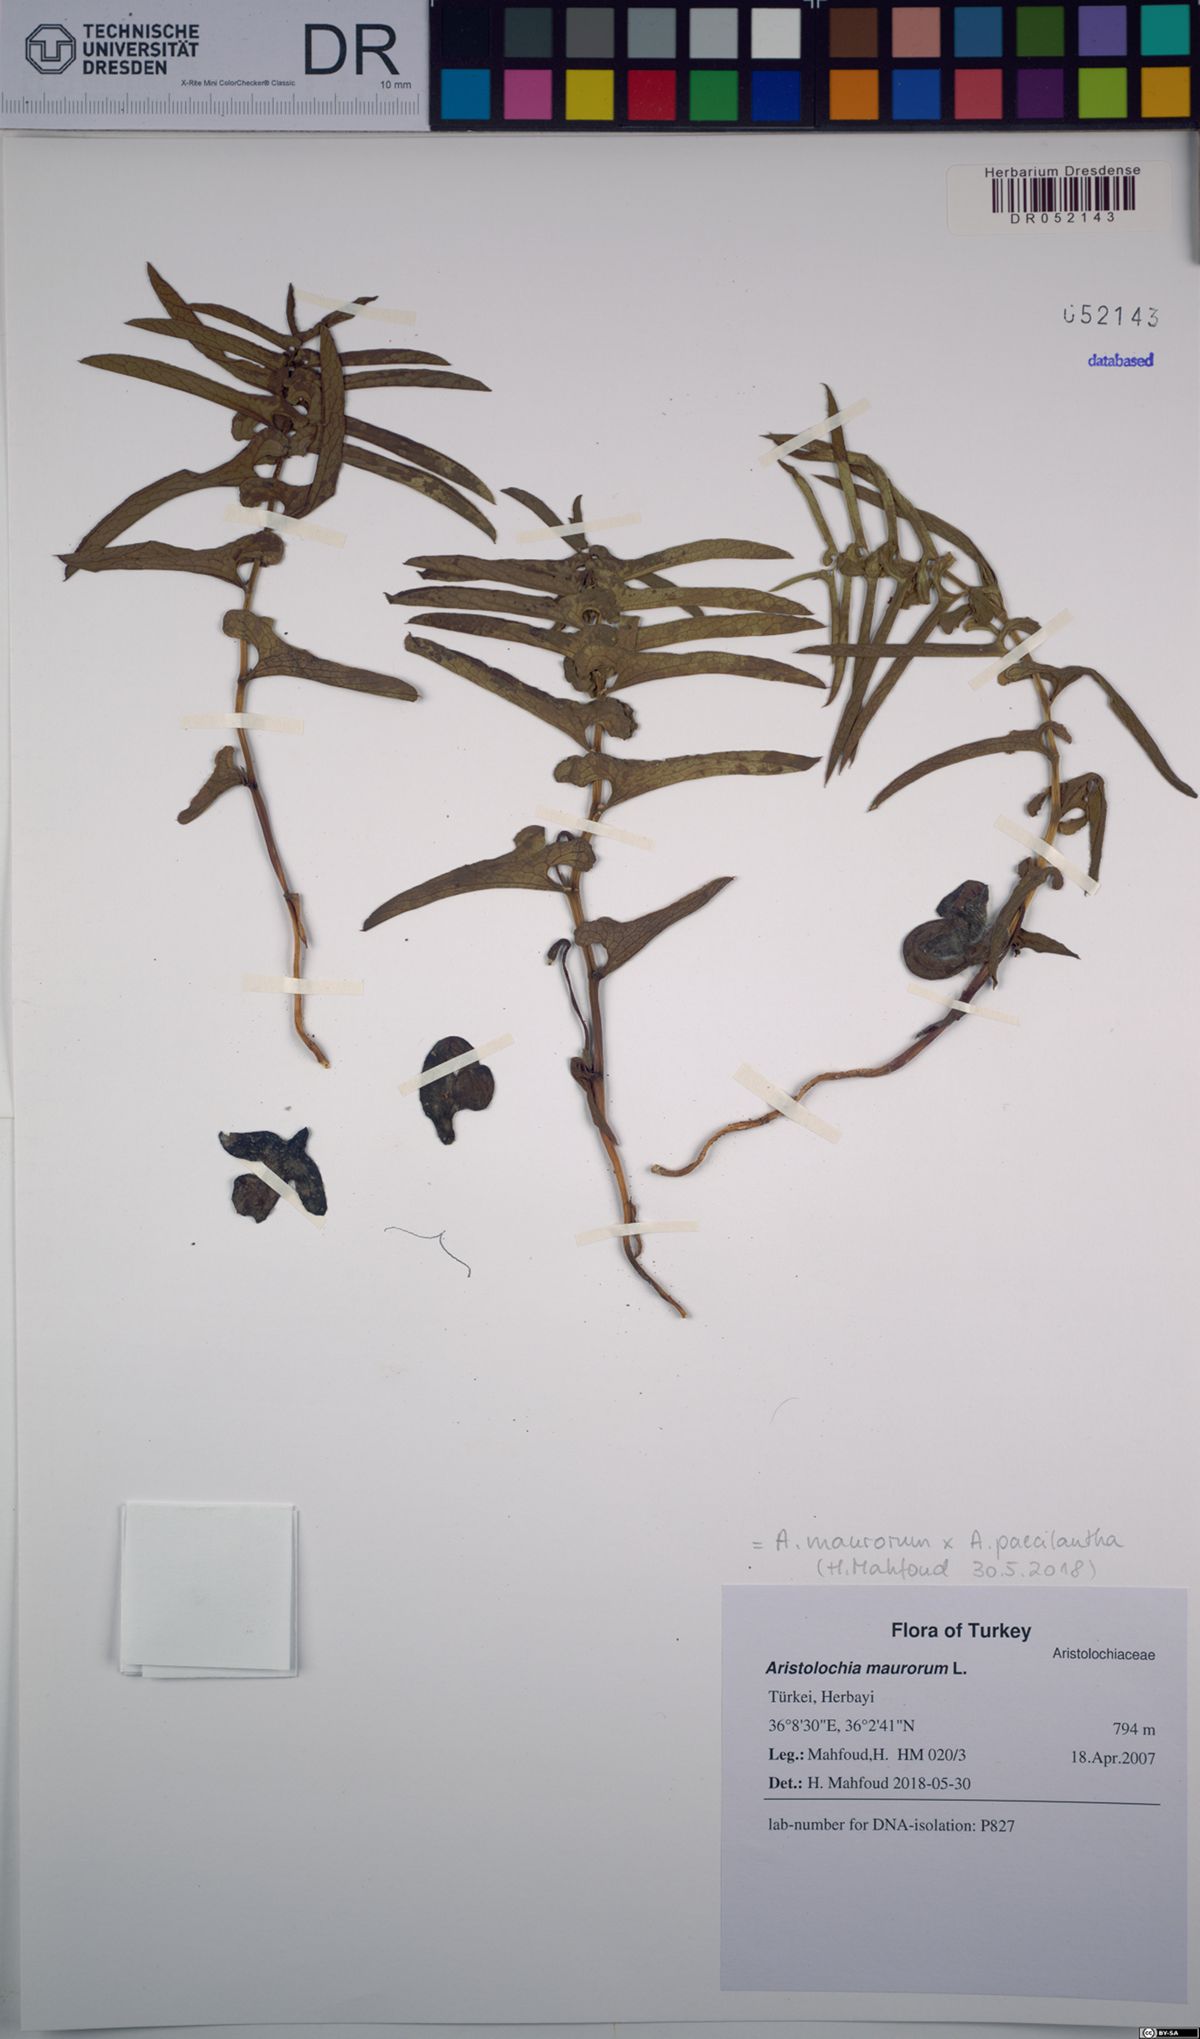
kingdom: Plantae
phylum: Tracheophyta
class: Magnoliopsida
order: Piperales
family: Aristolochiaceae
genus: Aristolochia
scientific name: Aristolochia maurorum
